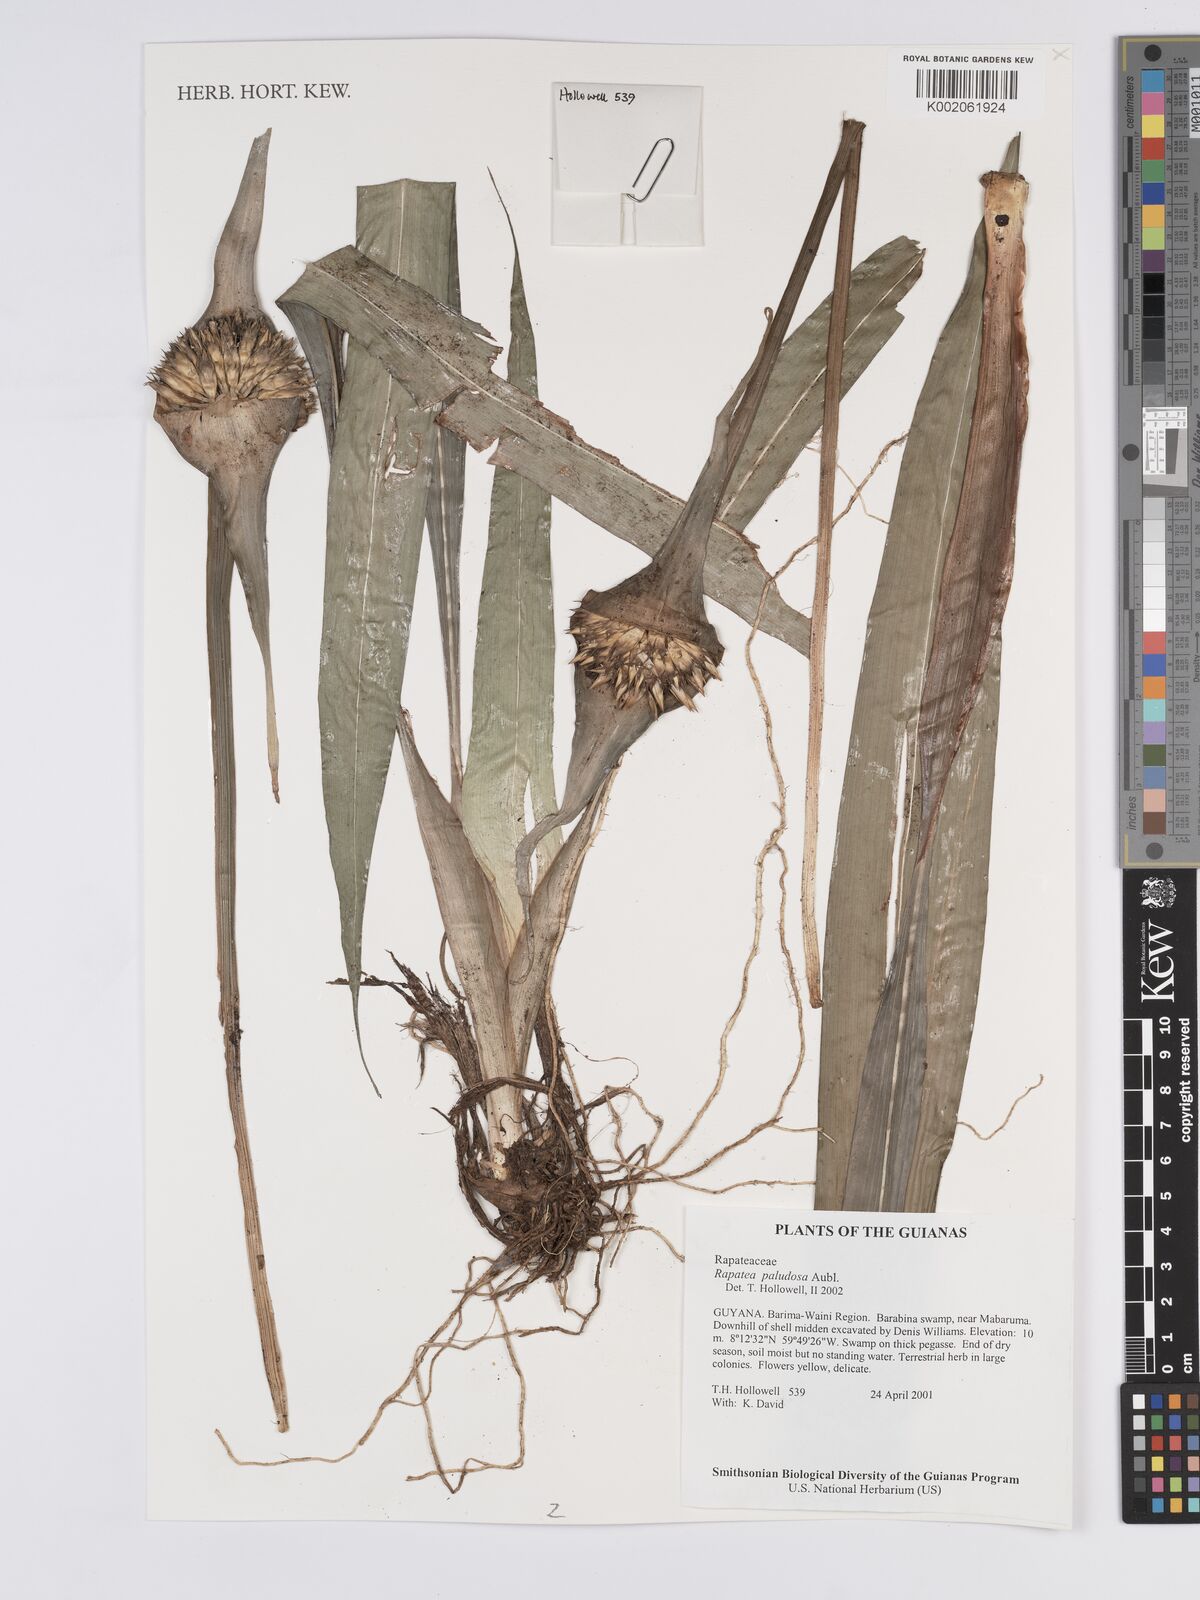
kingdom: Plantae
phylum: Tracheophyta
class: Liliopsida
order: Poales
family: Rapateaceae
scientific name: Rapateaceae
